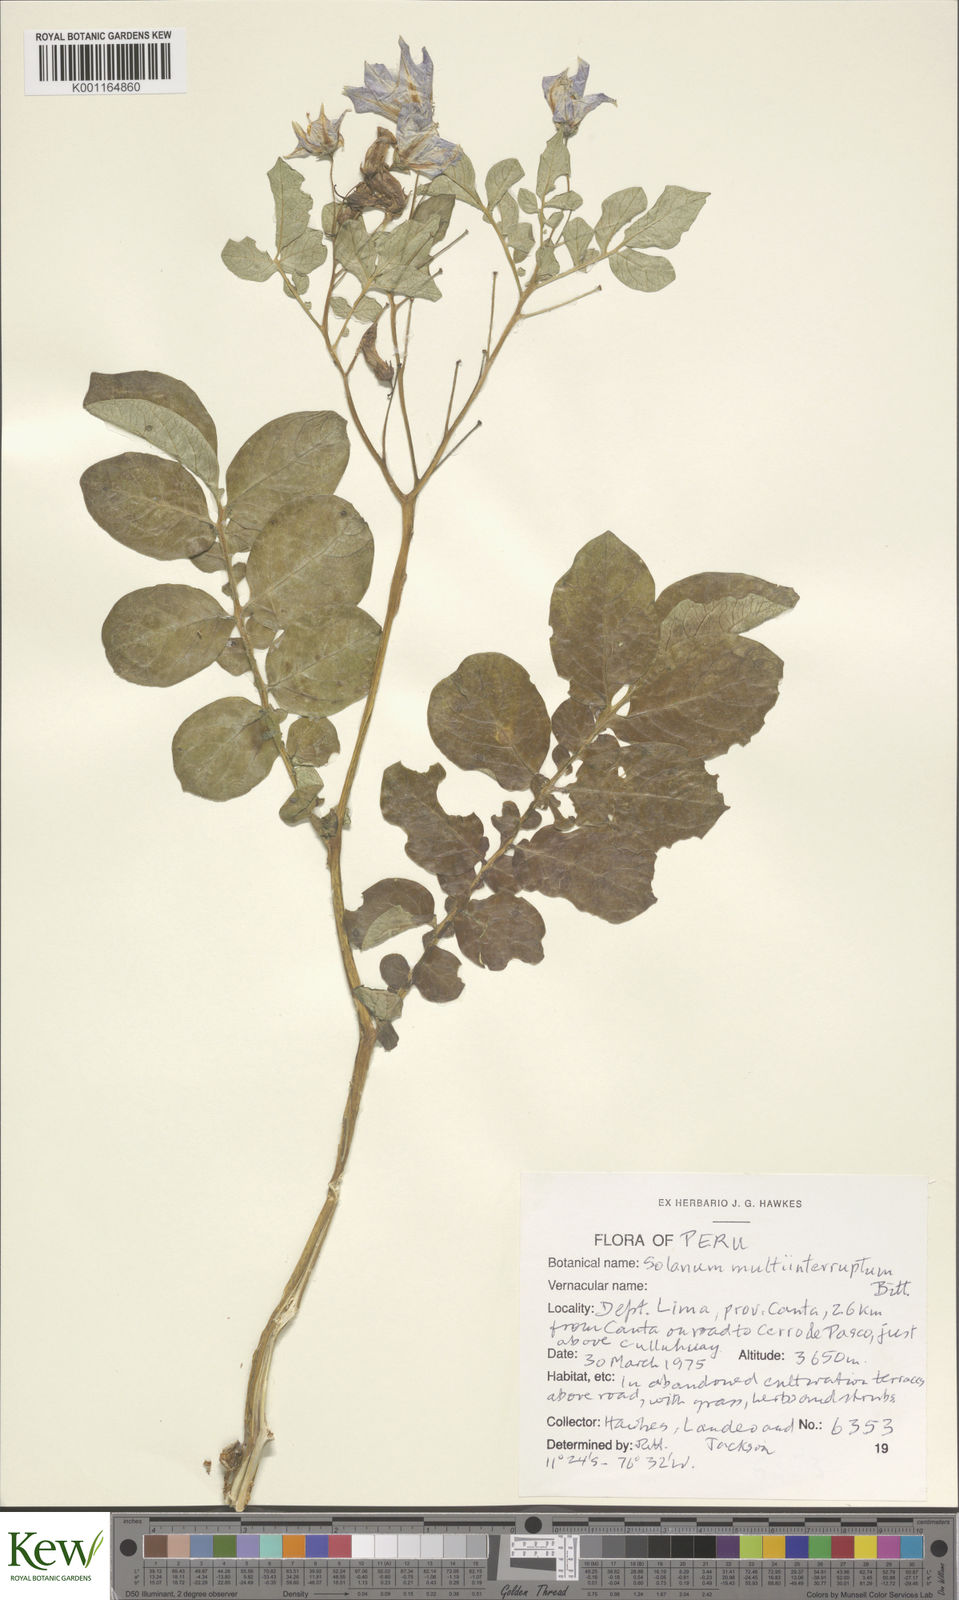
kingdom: Plantae
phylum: Tracheophyta
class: Magnoliopsida
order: Solanales
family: Solanaceae
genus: Solanum
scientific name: Solanum multiinterruptum
